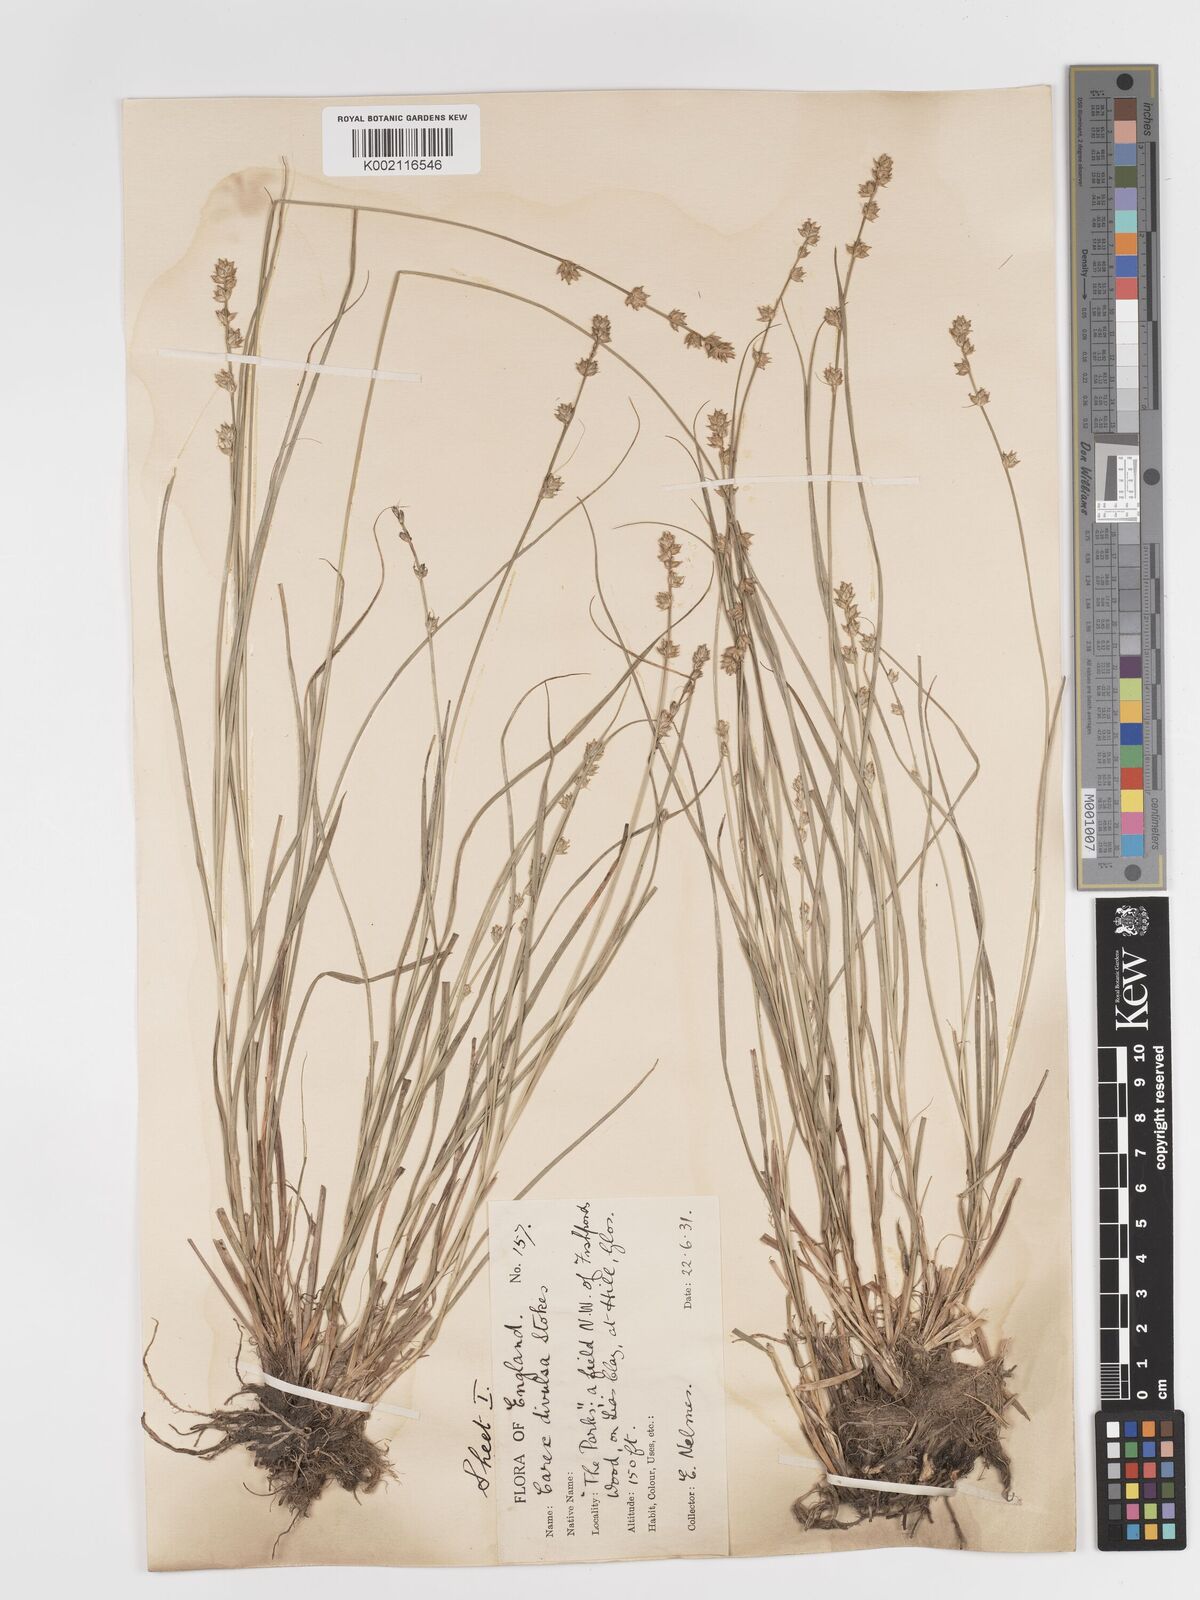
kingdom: Plantae
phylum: Tracheophyta
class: Liliopsida
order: Poales
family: Cyperaceae
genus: Carex
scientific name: Carex divulsa
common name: Grassland sedge
